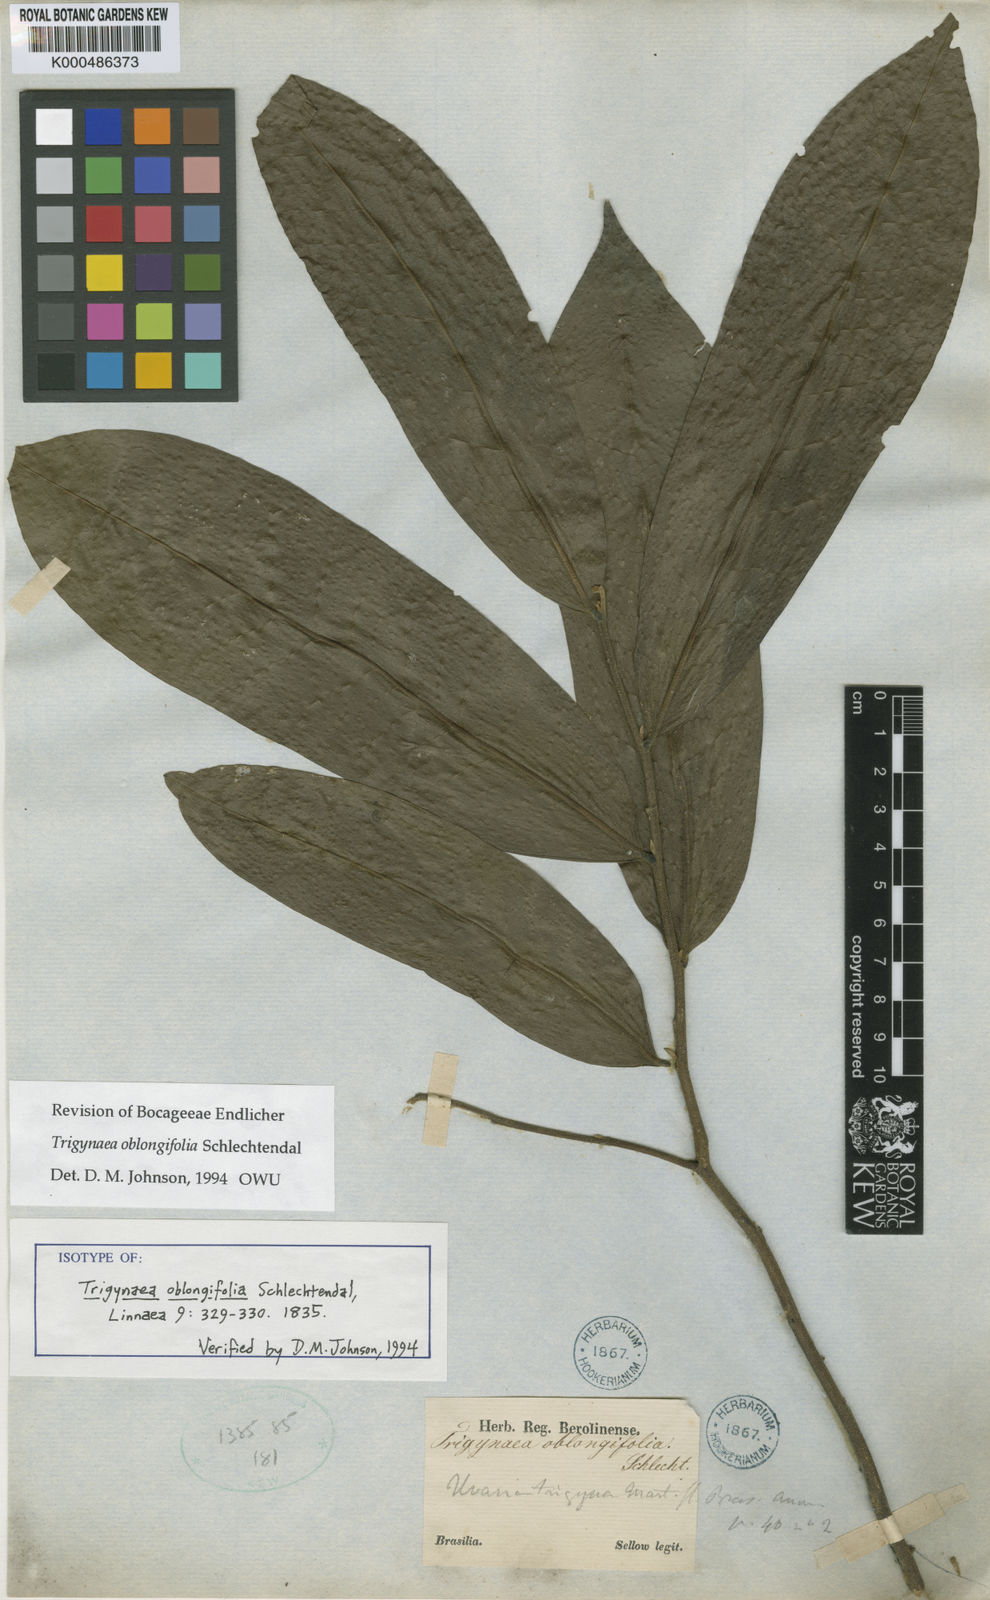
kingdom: Plantae
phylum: Tracheophyta
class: Magnoliopsida
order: Magnoliales
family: Annonaceae
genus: Trigynaea
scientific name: Trigynaea oblongifolia
